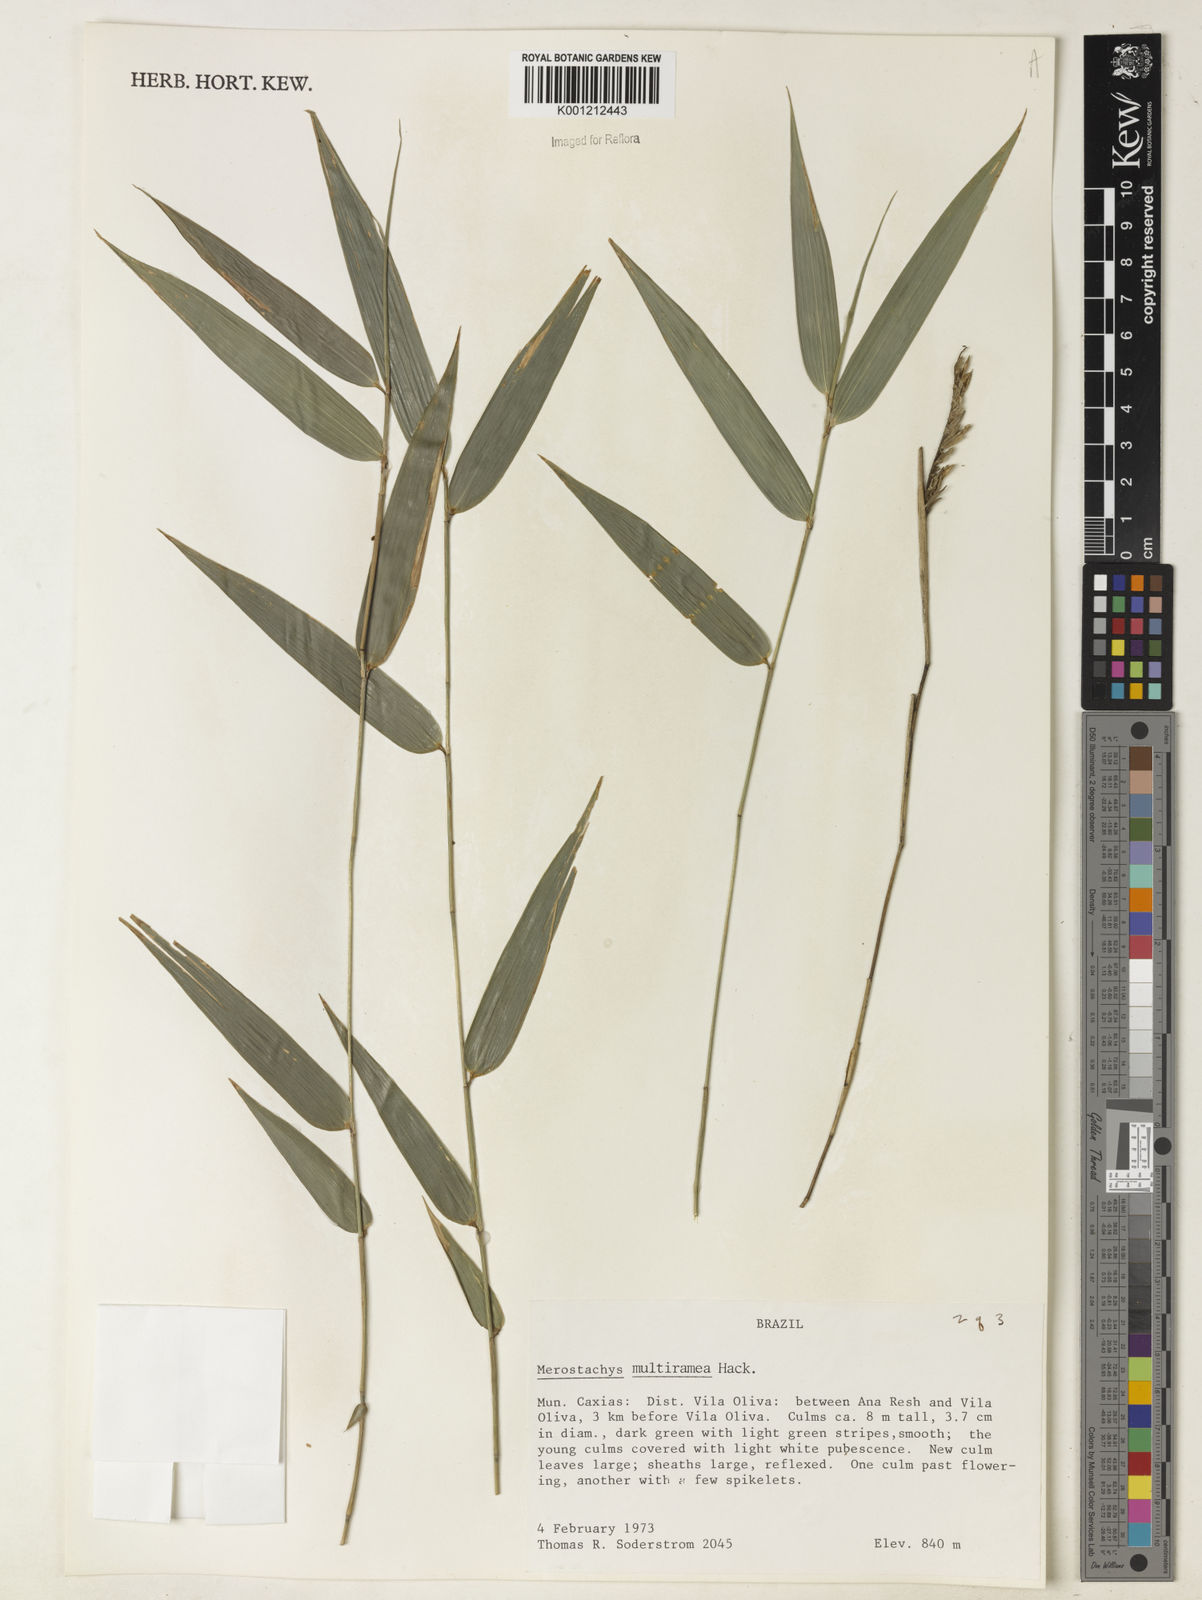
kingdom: Plantae
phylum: Tracheophyta
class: Liliopsida
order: Poales
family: Poaceae
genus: Merostachys
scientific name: Merostachys multiramea
